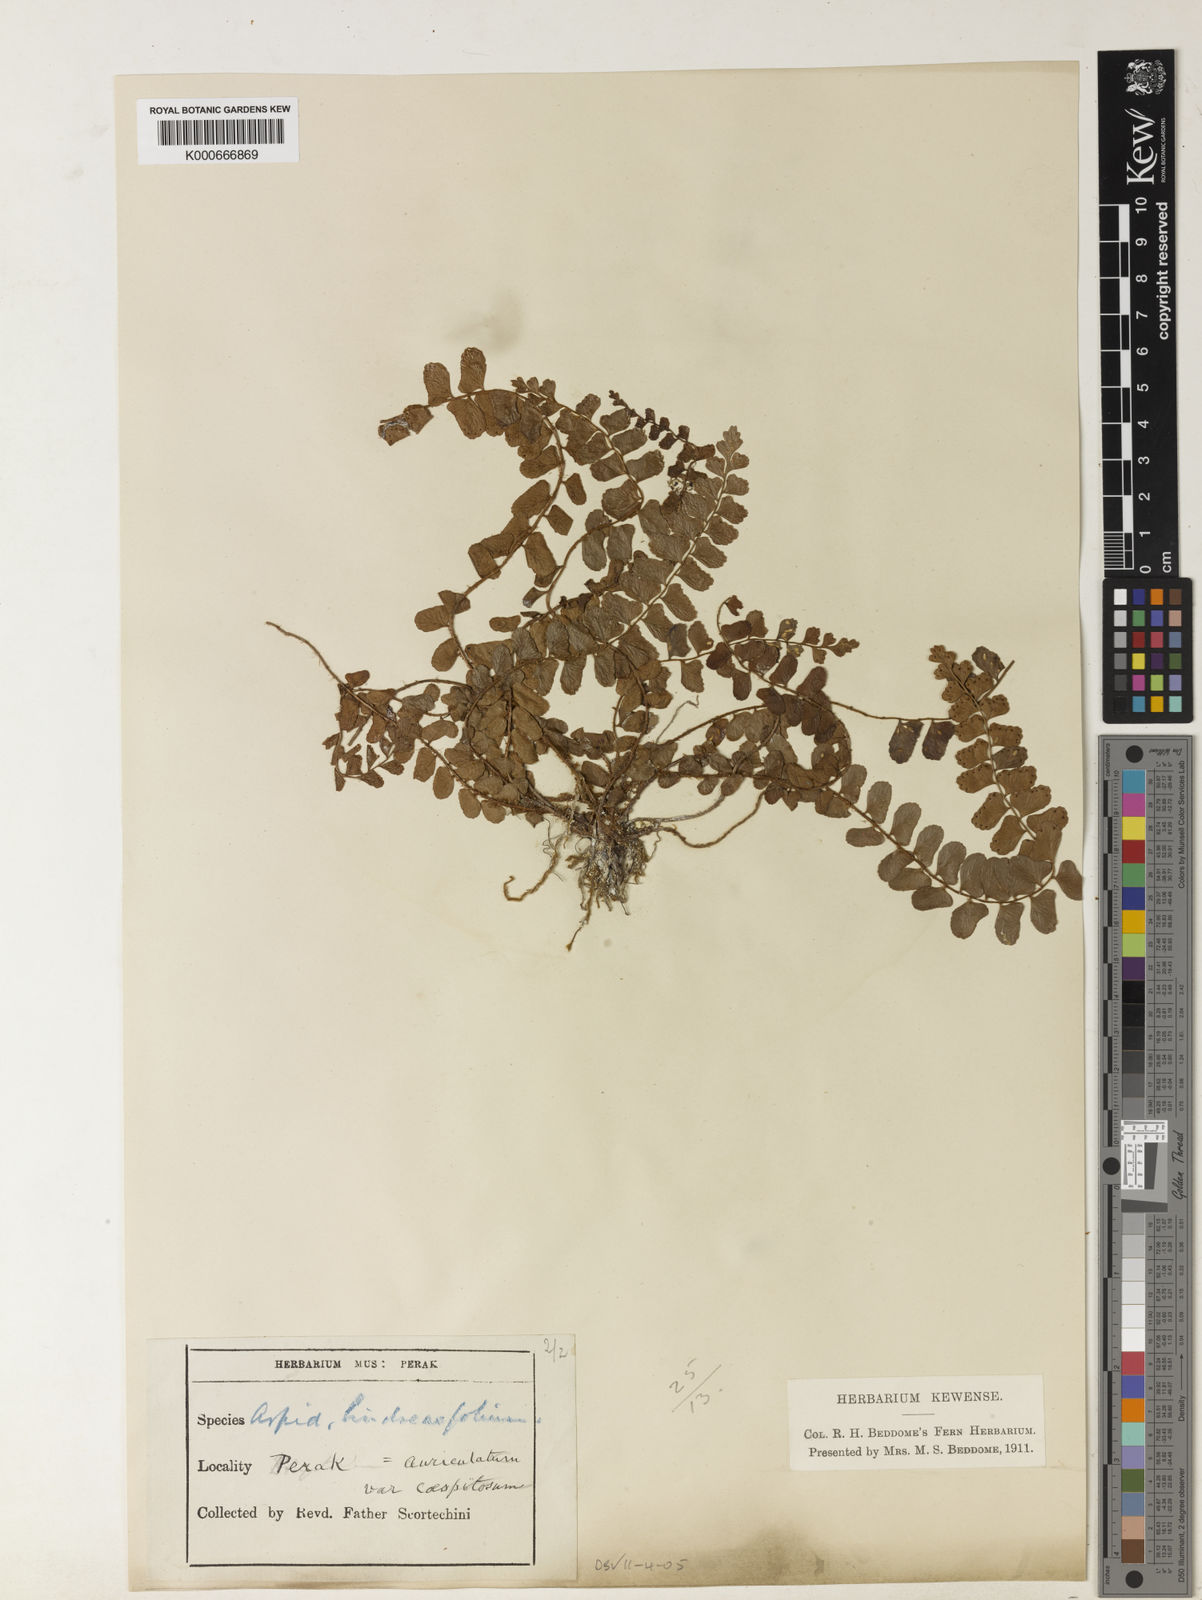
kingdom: Plantae
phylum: Tracheophyta
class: Polypodiopsida
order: Polypodiales
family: Dryopteridaceae
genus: Polystichum
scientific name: Polystichum lindseaefolium
